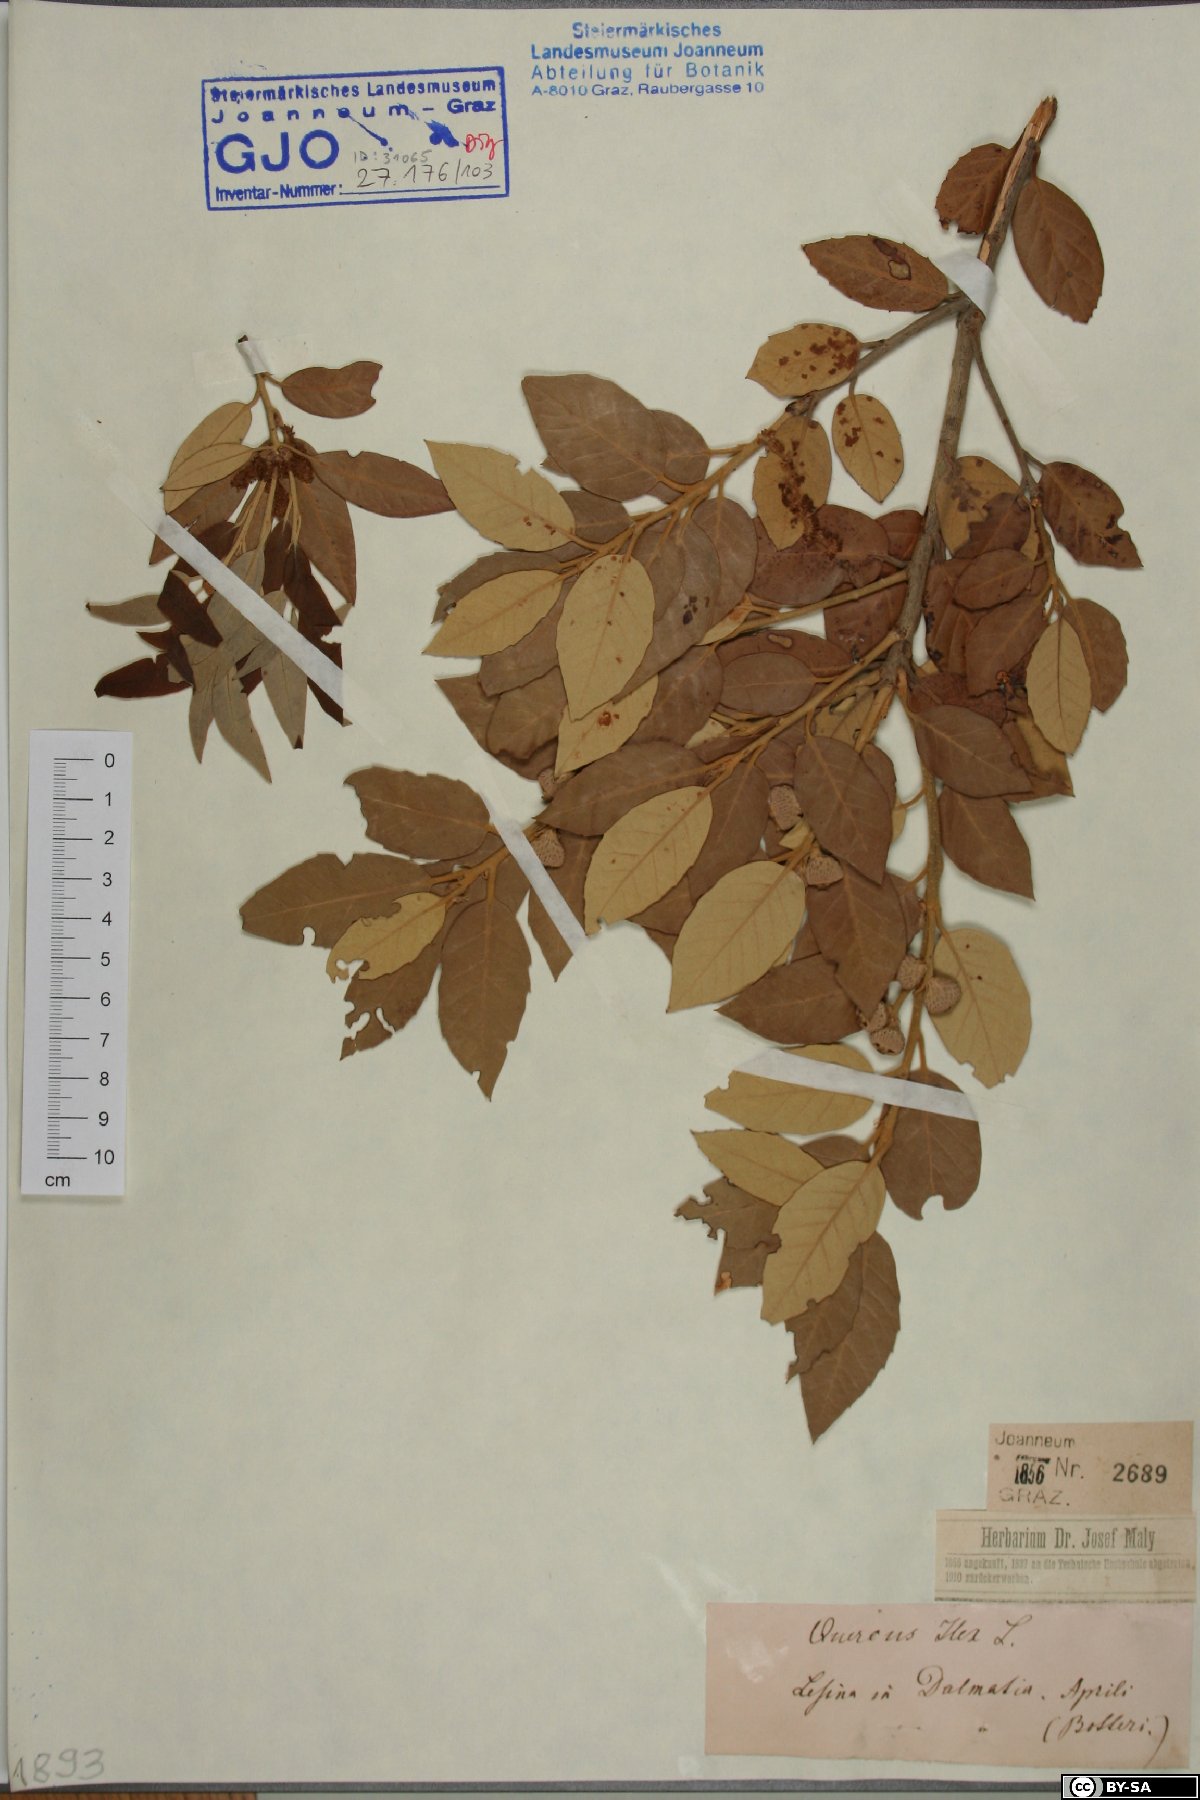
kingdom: Plantae
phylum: Tracheophyta
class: Magnoliopsida
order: Fagales
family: Fagaceae
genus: Quercus
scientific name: Quercus ilex
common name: Evergreen oak
